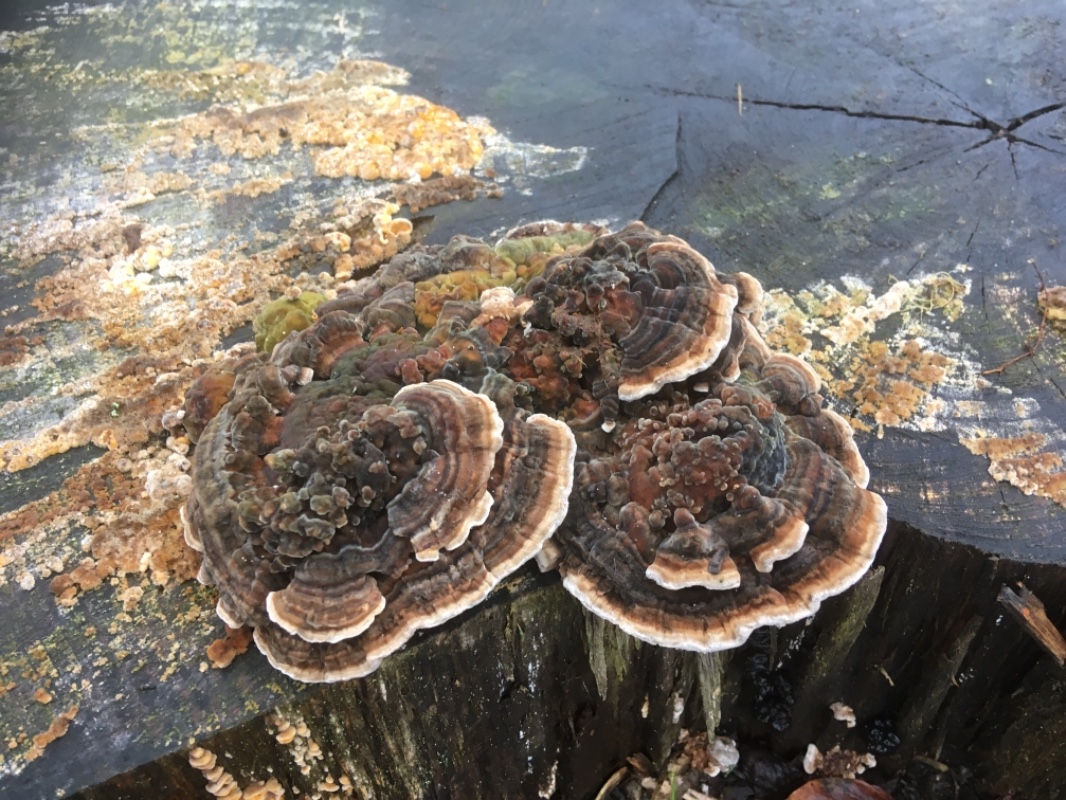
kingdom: Fungi
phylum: Basidiomycota
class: Agaricomycetes
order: Polyporales
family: Polyporaceae
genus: Trametes
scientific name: Trametes versicolor
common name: broget læderporesvamp
